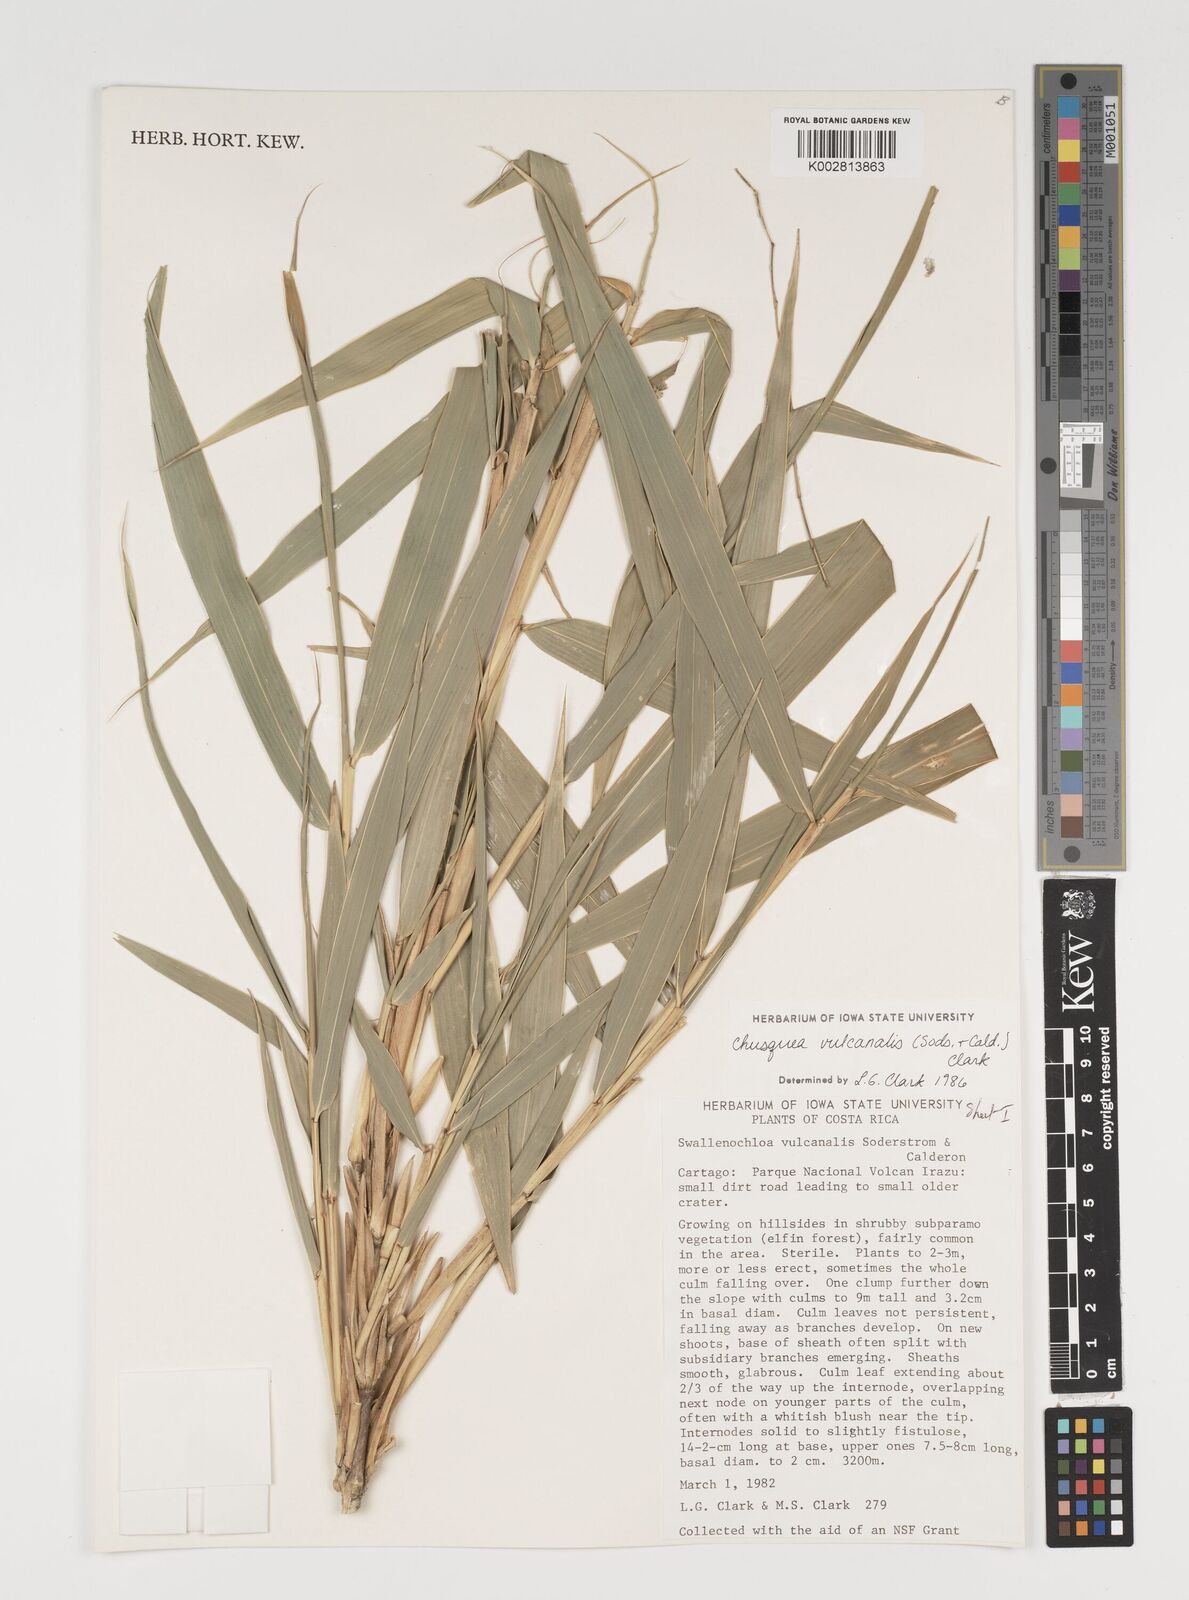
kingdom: Plantae
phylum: Tracheophyta
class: Liliopsida
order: Poales
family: Poaceae
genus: Chusquea
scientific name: Chusquea vulcanalis
